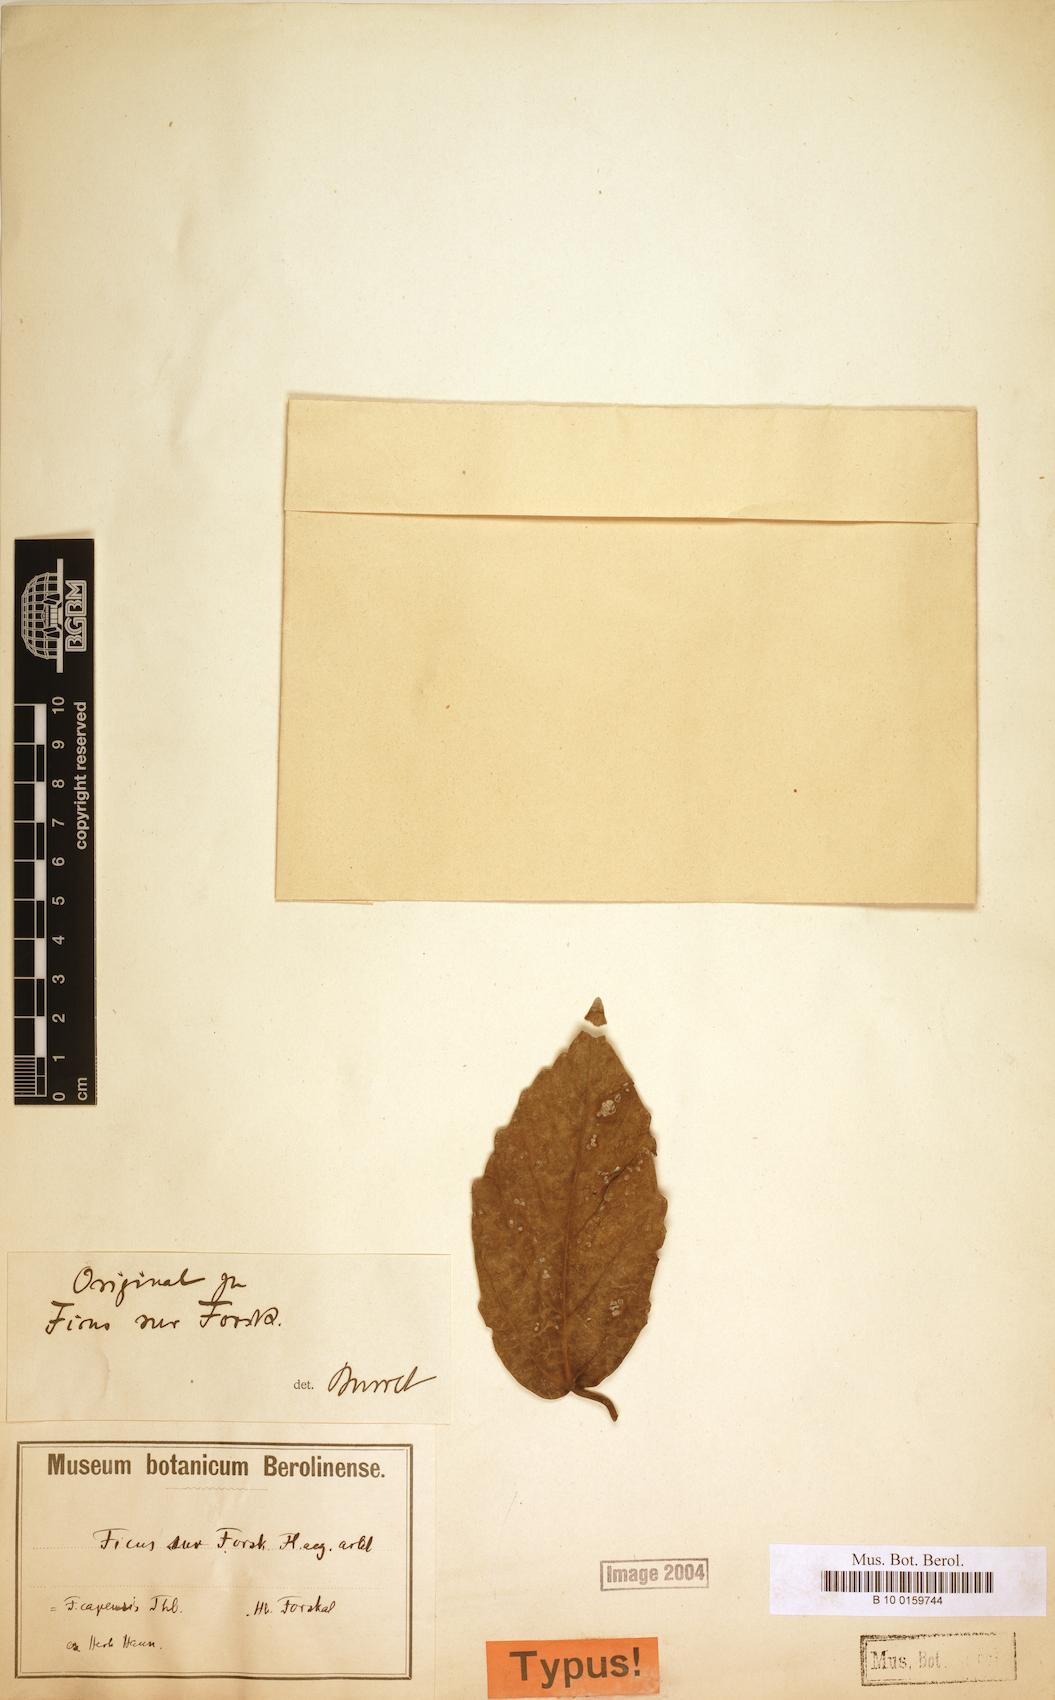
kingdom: Plantae
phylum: Tracheophyta
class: Magnoliopsida
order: Rosales
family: Moraceae
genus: Ficus
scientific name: Ficus sur
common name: Cape fig
